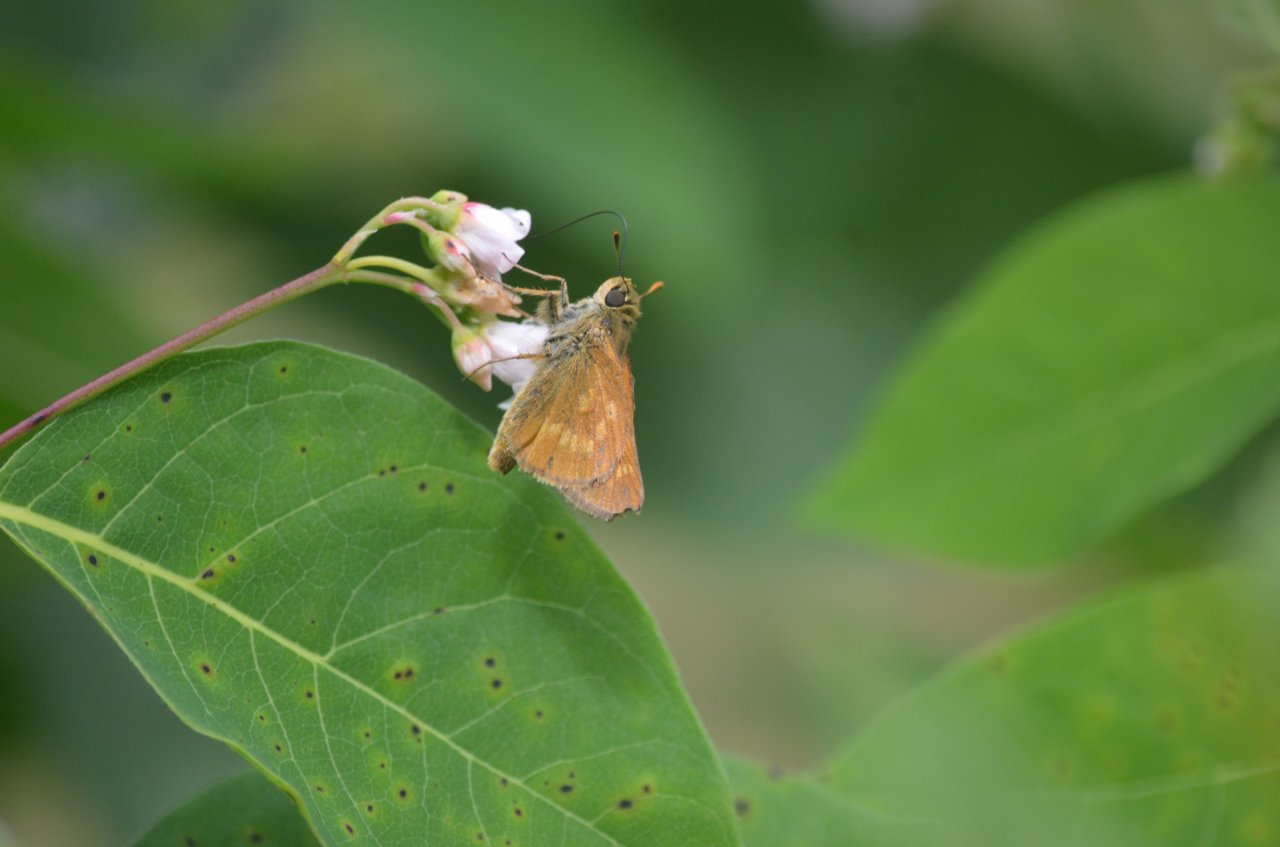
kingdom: Animalia
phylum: Arthropoda
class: Insecta
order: Lepidoptera
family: Hesperiidae
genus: Polites
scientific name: Polites
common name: Long Dash Skipper
